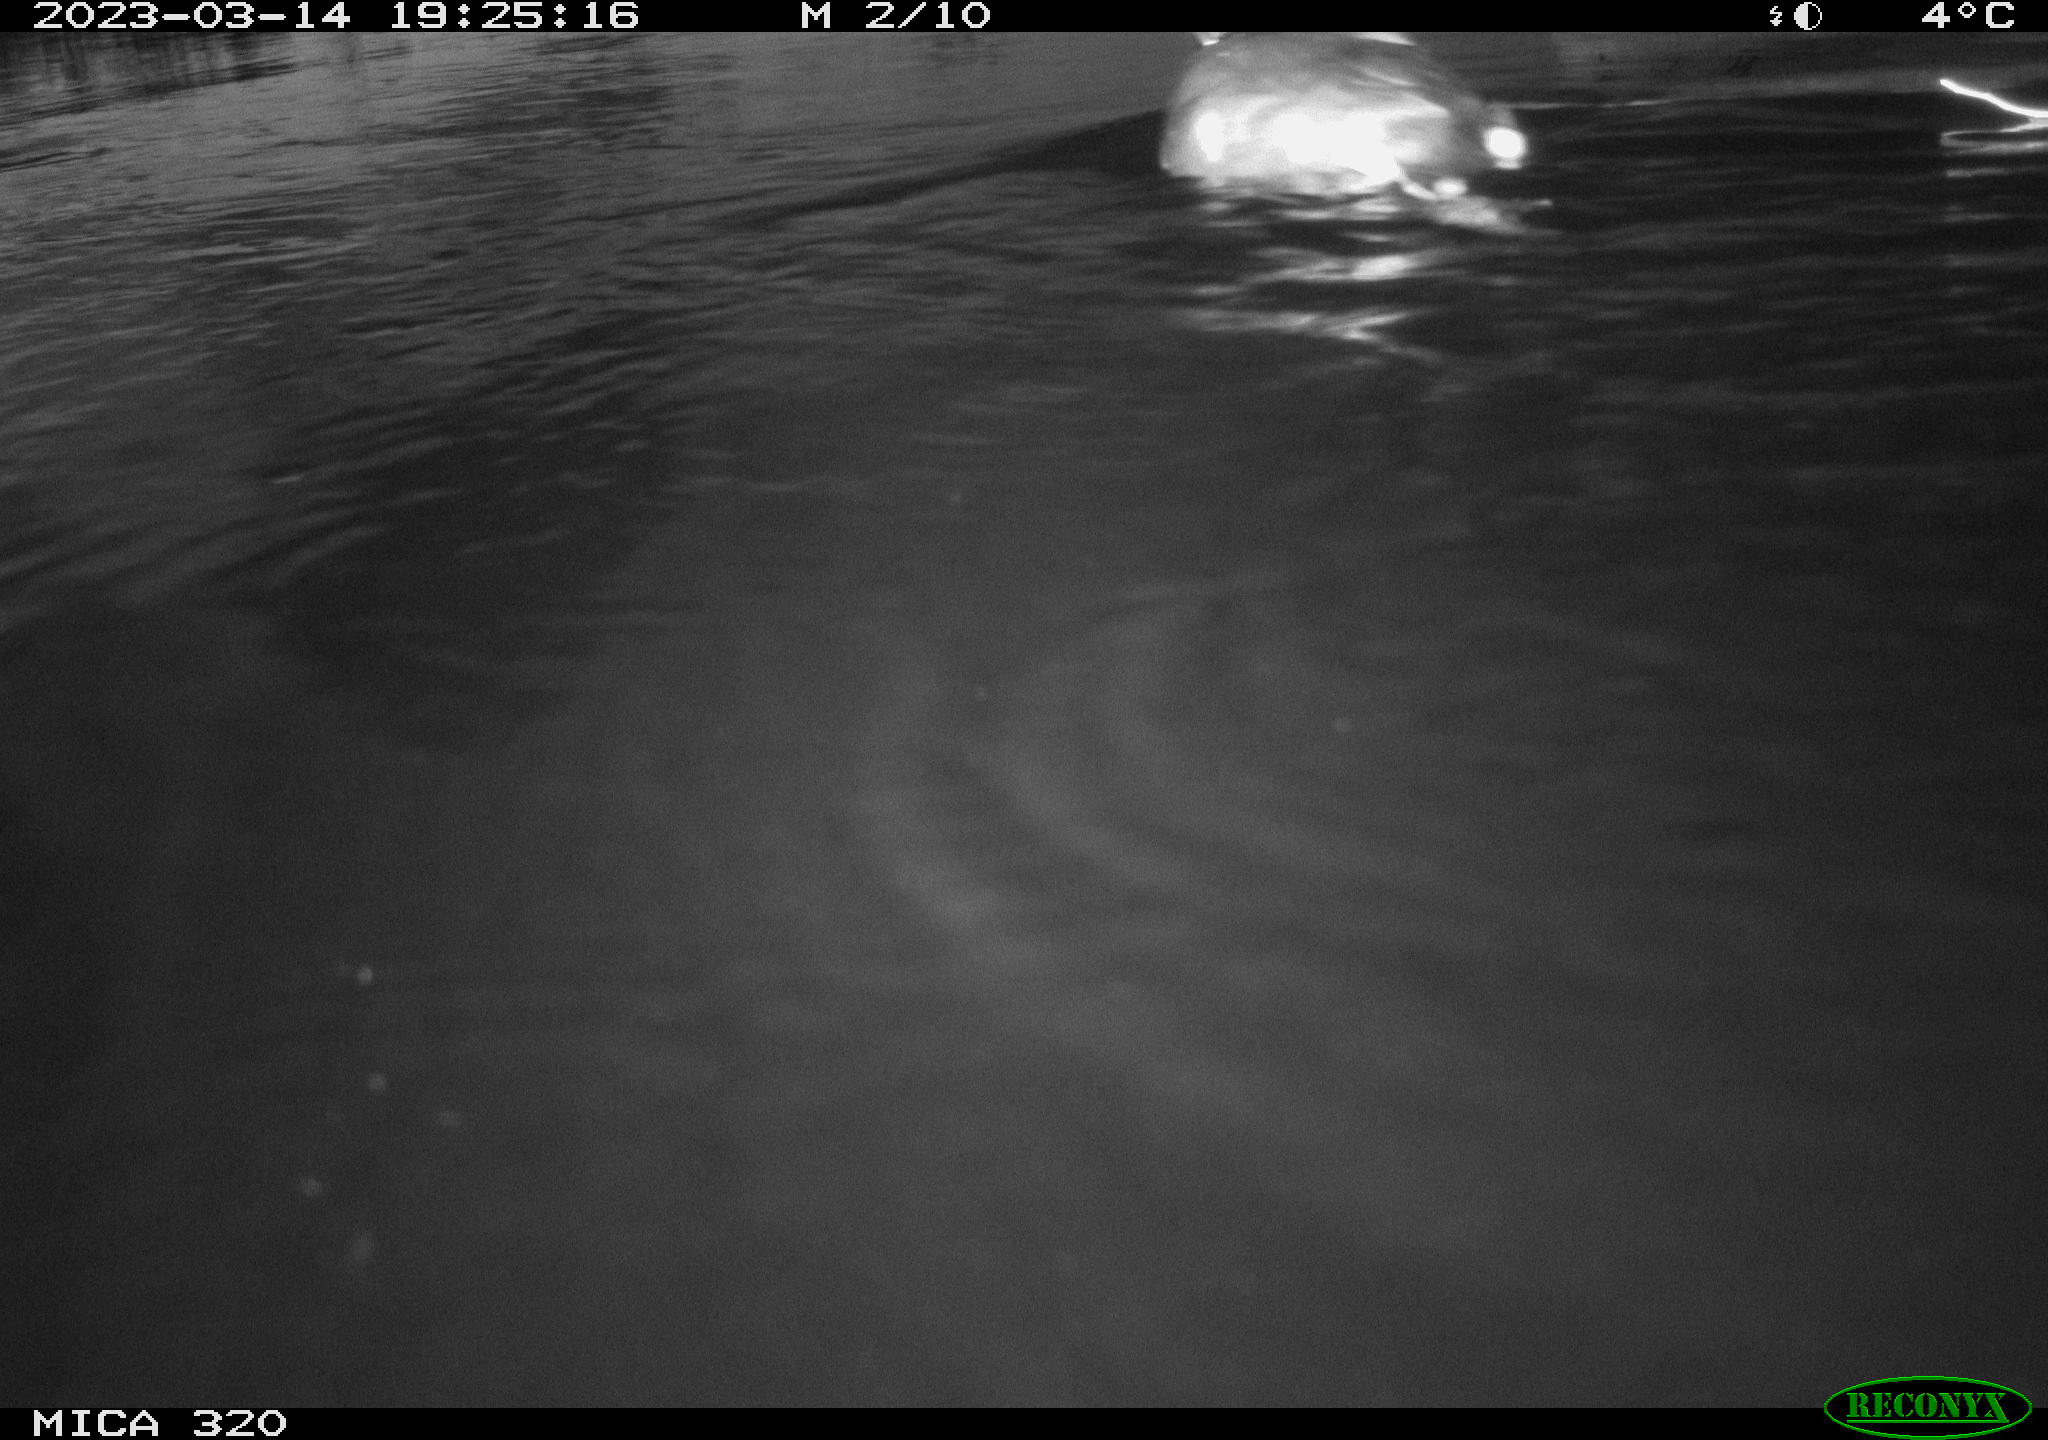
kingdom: Animalia
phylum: Chordata
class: Aves
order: Gruiformes
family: Rallidae
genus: Fulica
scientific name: Fulica atra
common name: Eurasian coot
